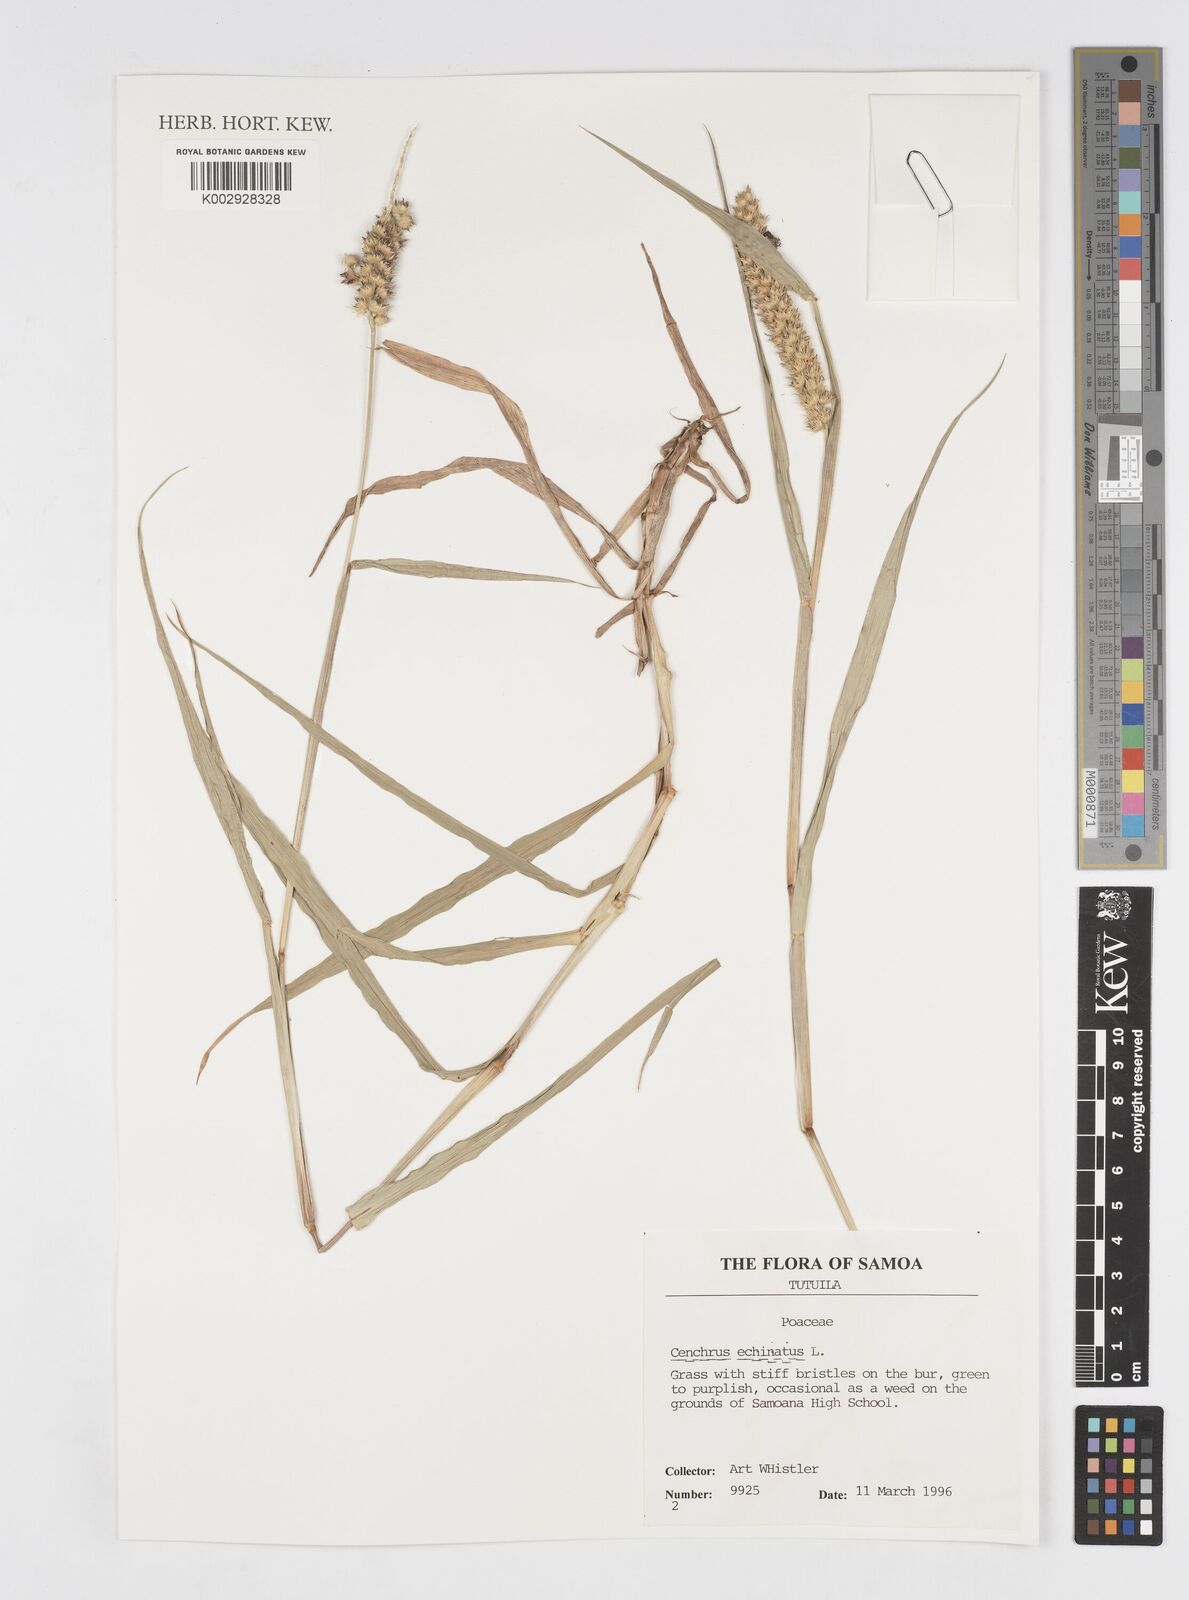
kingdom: Plantae
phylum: Tracheophyta
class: Liliopsida
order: Poales
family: Poaceae
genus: Cenchrus
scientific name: Cenchrus echinatus
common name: Southern sandbur
